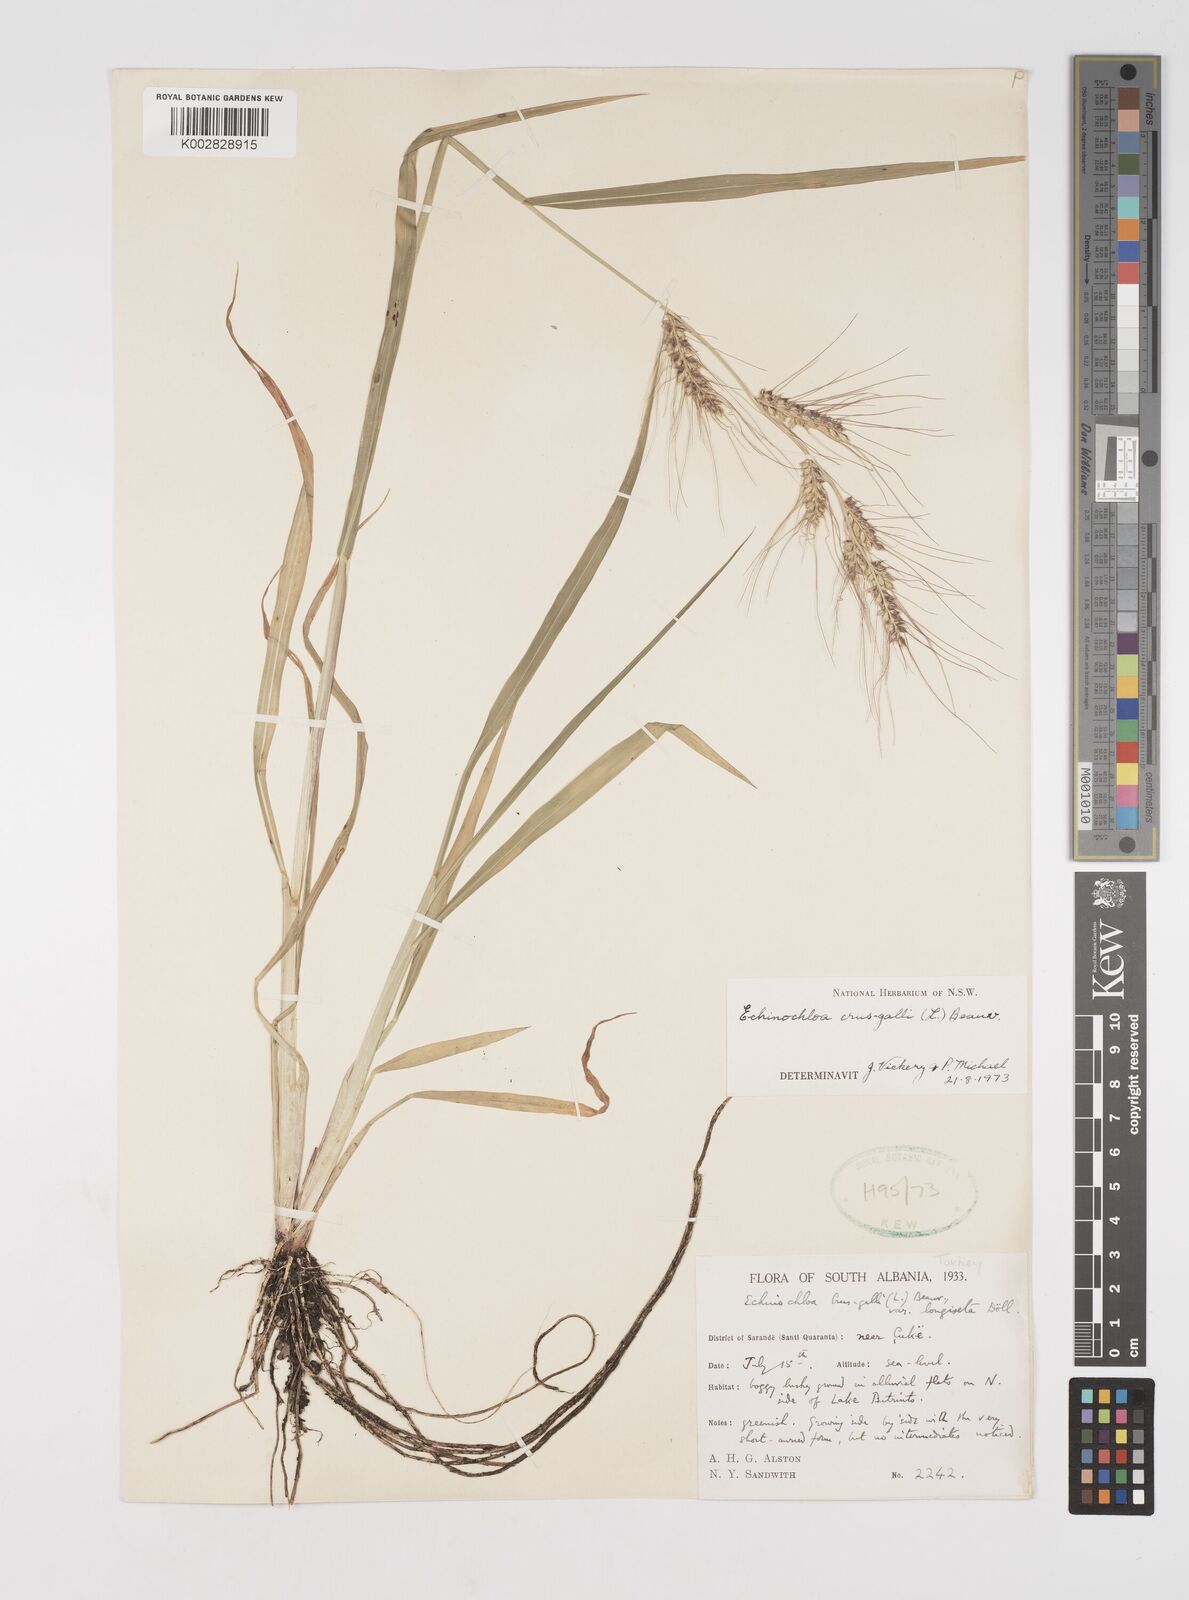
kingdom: Plantae
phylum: Tracheophyta
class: Liliopsida
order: Poales
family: Poaceae
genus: Echinochloa
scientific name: Echinochloa crus-galli
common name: Cockspur
